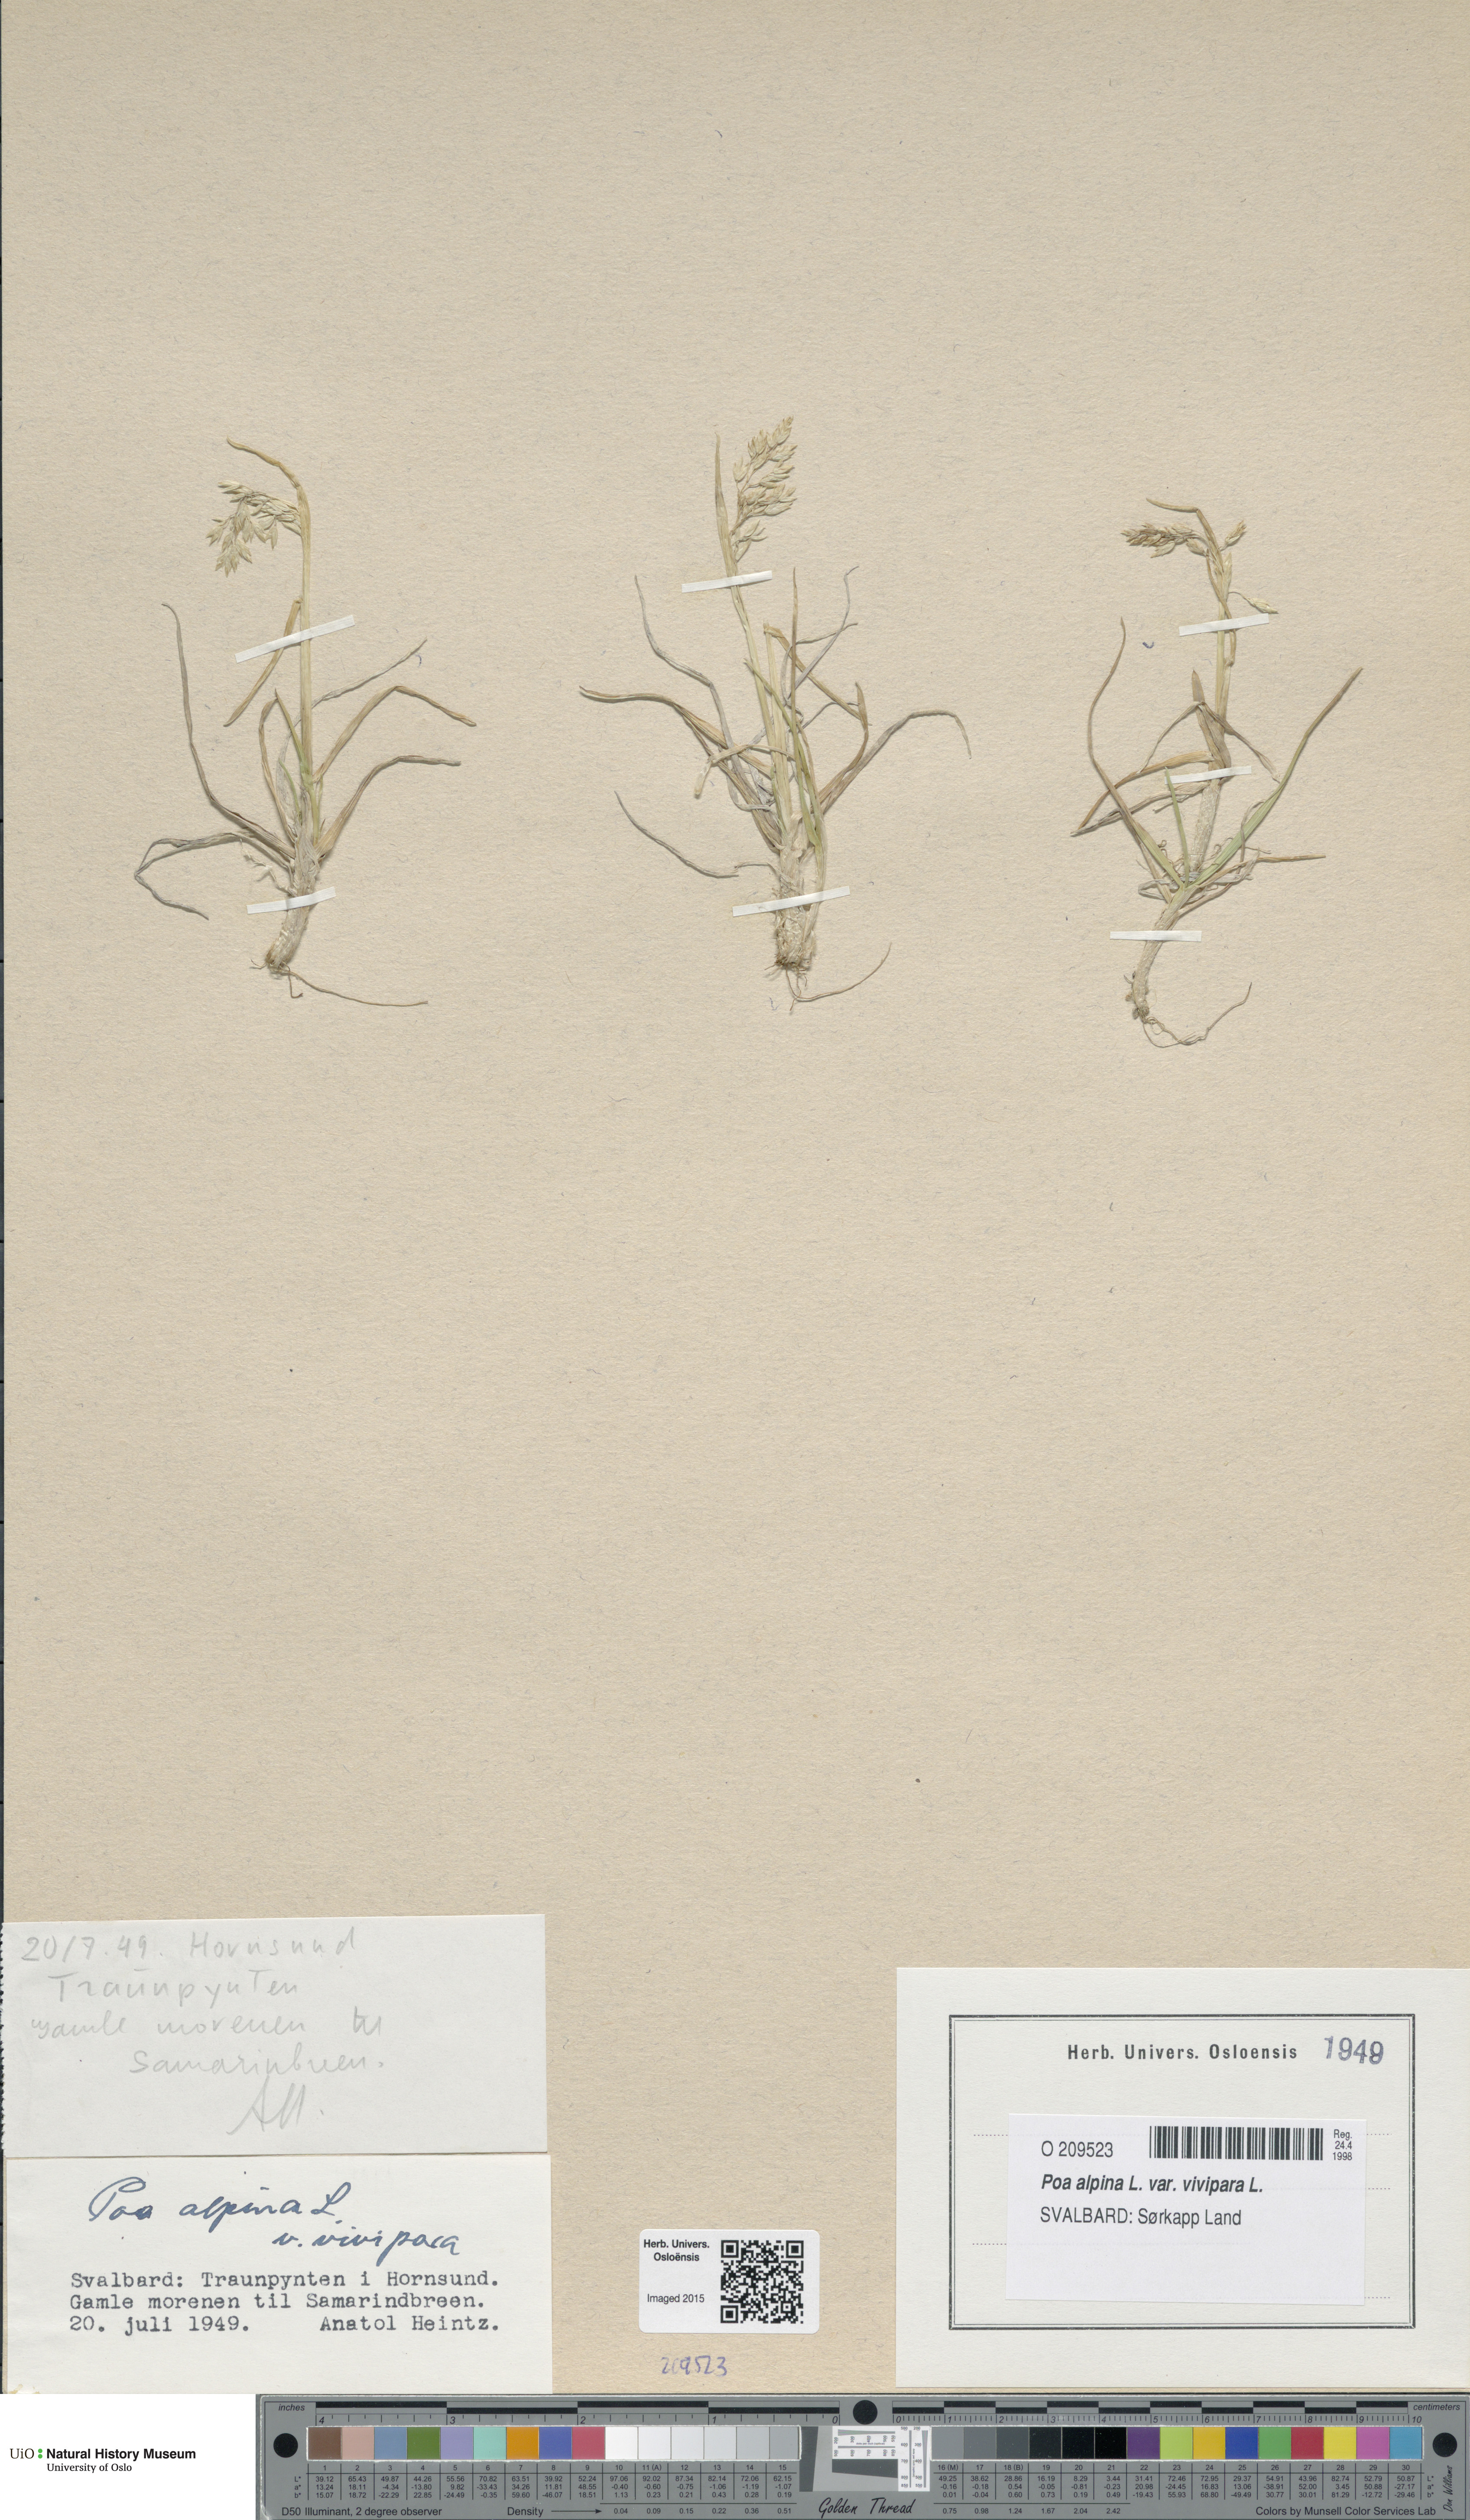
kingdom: Plantae
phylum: Tracheophyta
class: Liliopsida
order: Poales
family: Poaceae
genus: Poa
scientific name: Poa alpina
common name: Alpine bluegrass
